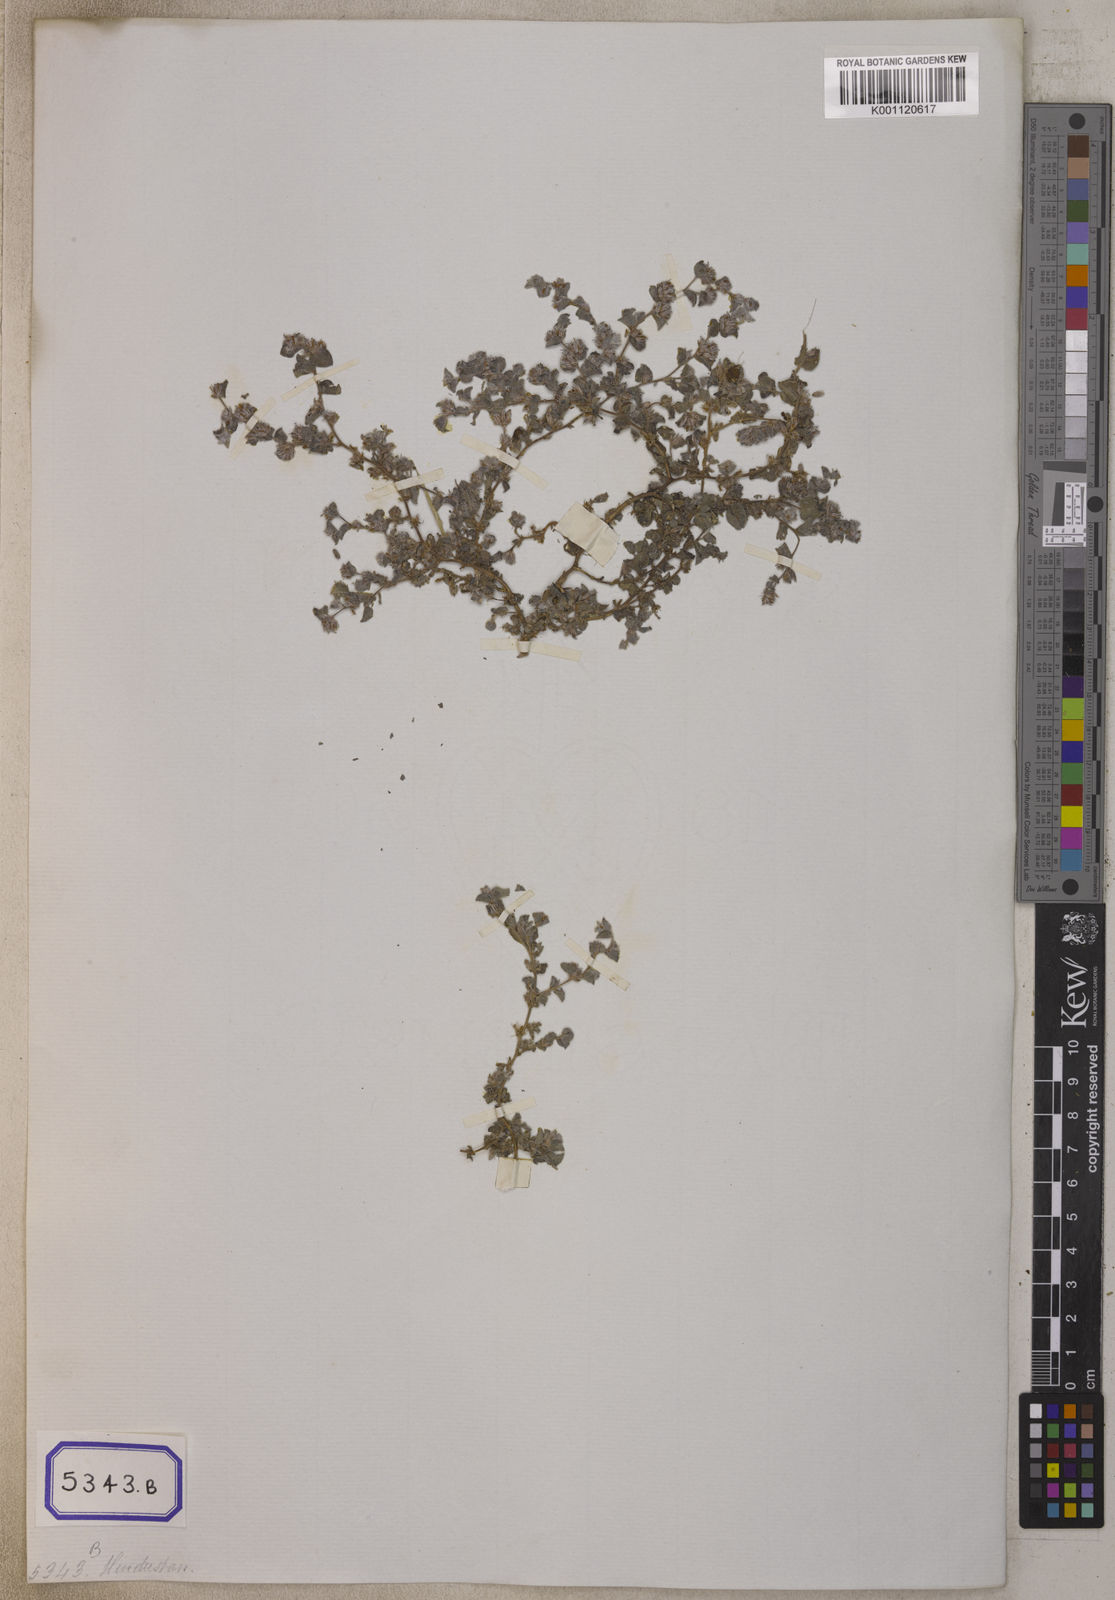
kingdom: Plantae
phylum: Tracheophyta
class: Magnoliopsida
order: Fabales
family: Fabaceae
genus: Indigofera
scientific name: Indigofera cordifolia
